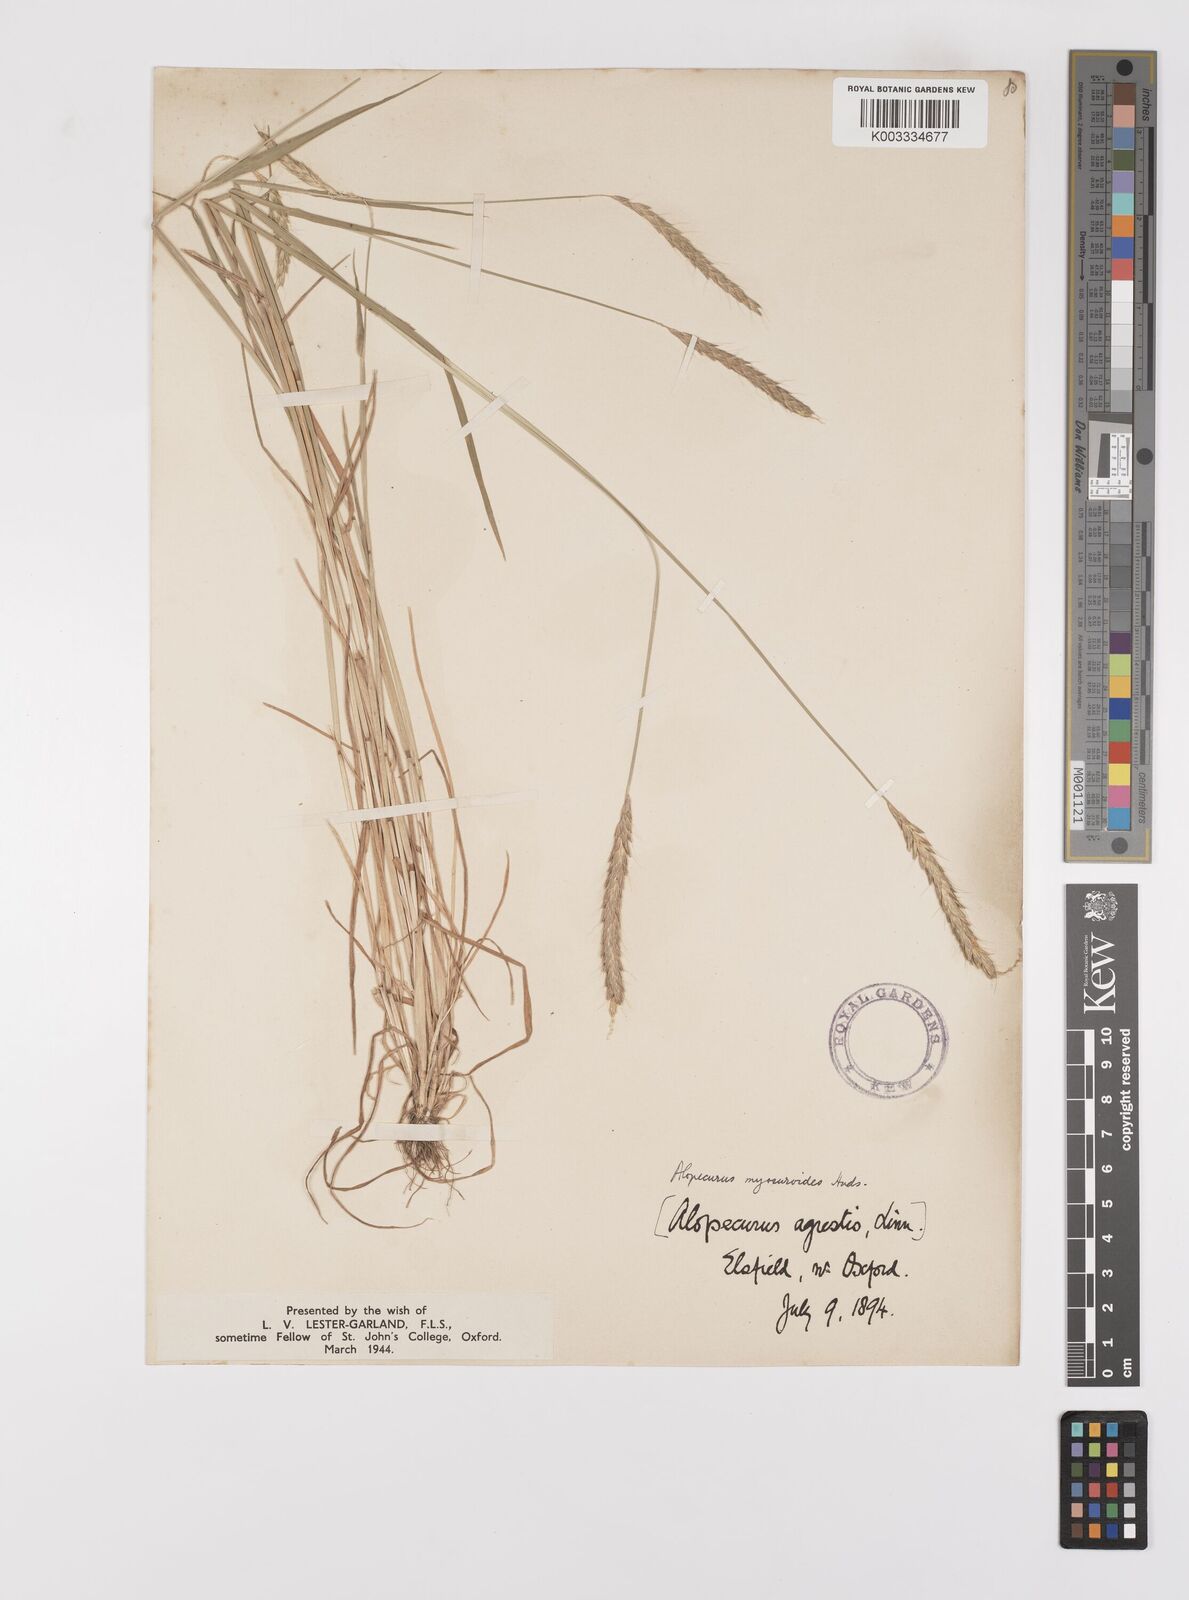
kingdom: Plantae
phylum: Tracheophyta
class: Liliopsida
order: Poales
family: Poaceae
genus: Alopecurus
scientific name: Alopecurus myosuroides
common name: Black-grass
